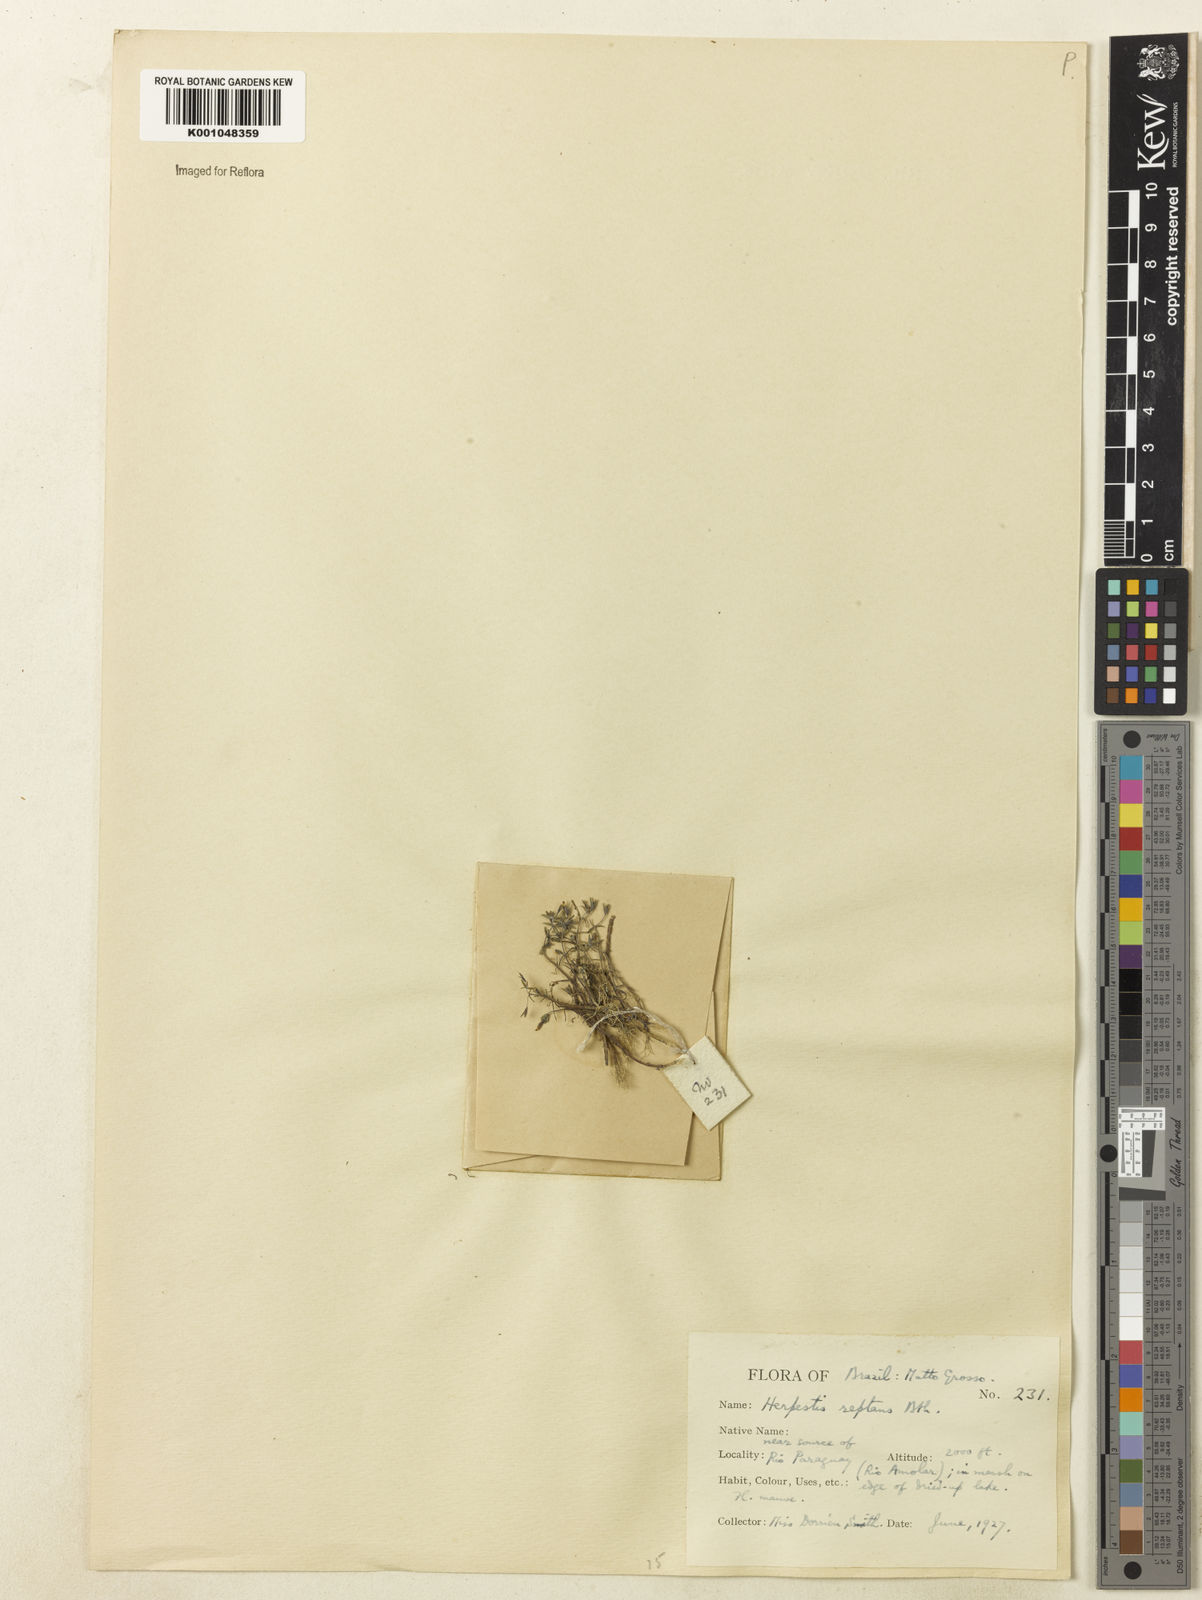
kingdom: Plantae
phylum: Tracheophyta
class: Magnoliopsida
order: Lamiales
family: Plantaginaceae
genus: Bacopa
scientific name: Bacopa
